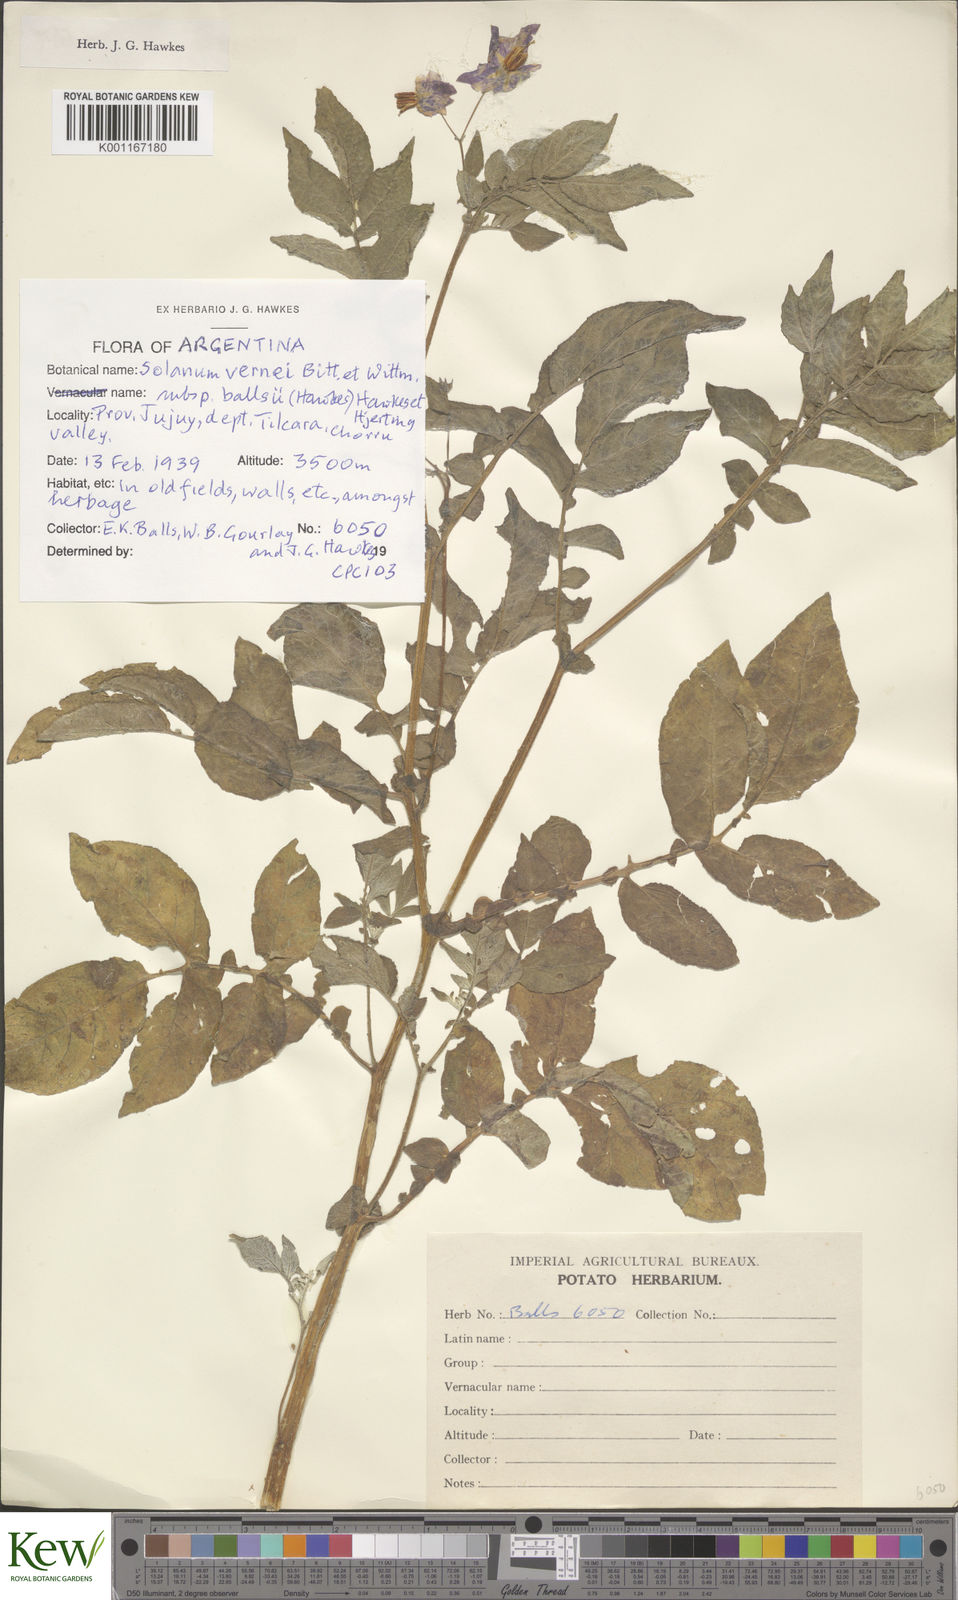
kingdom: Plantae
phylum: Tracheophyta
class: Magnoliopsida
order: Solanales
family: Solanaceae
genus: Solanum
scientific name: Solanum vernei
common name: Purple potato
